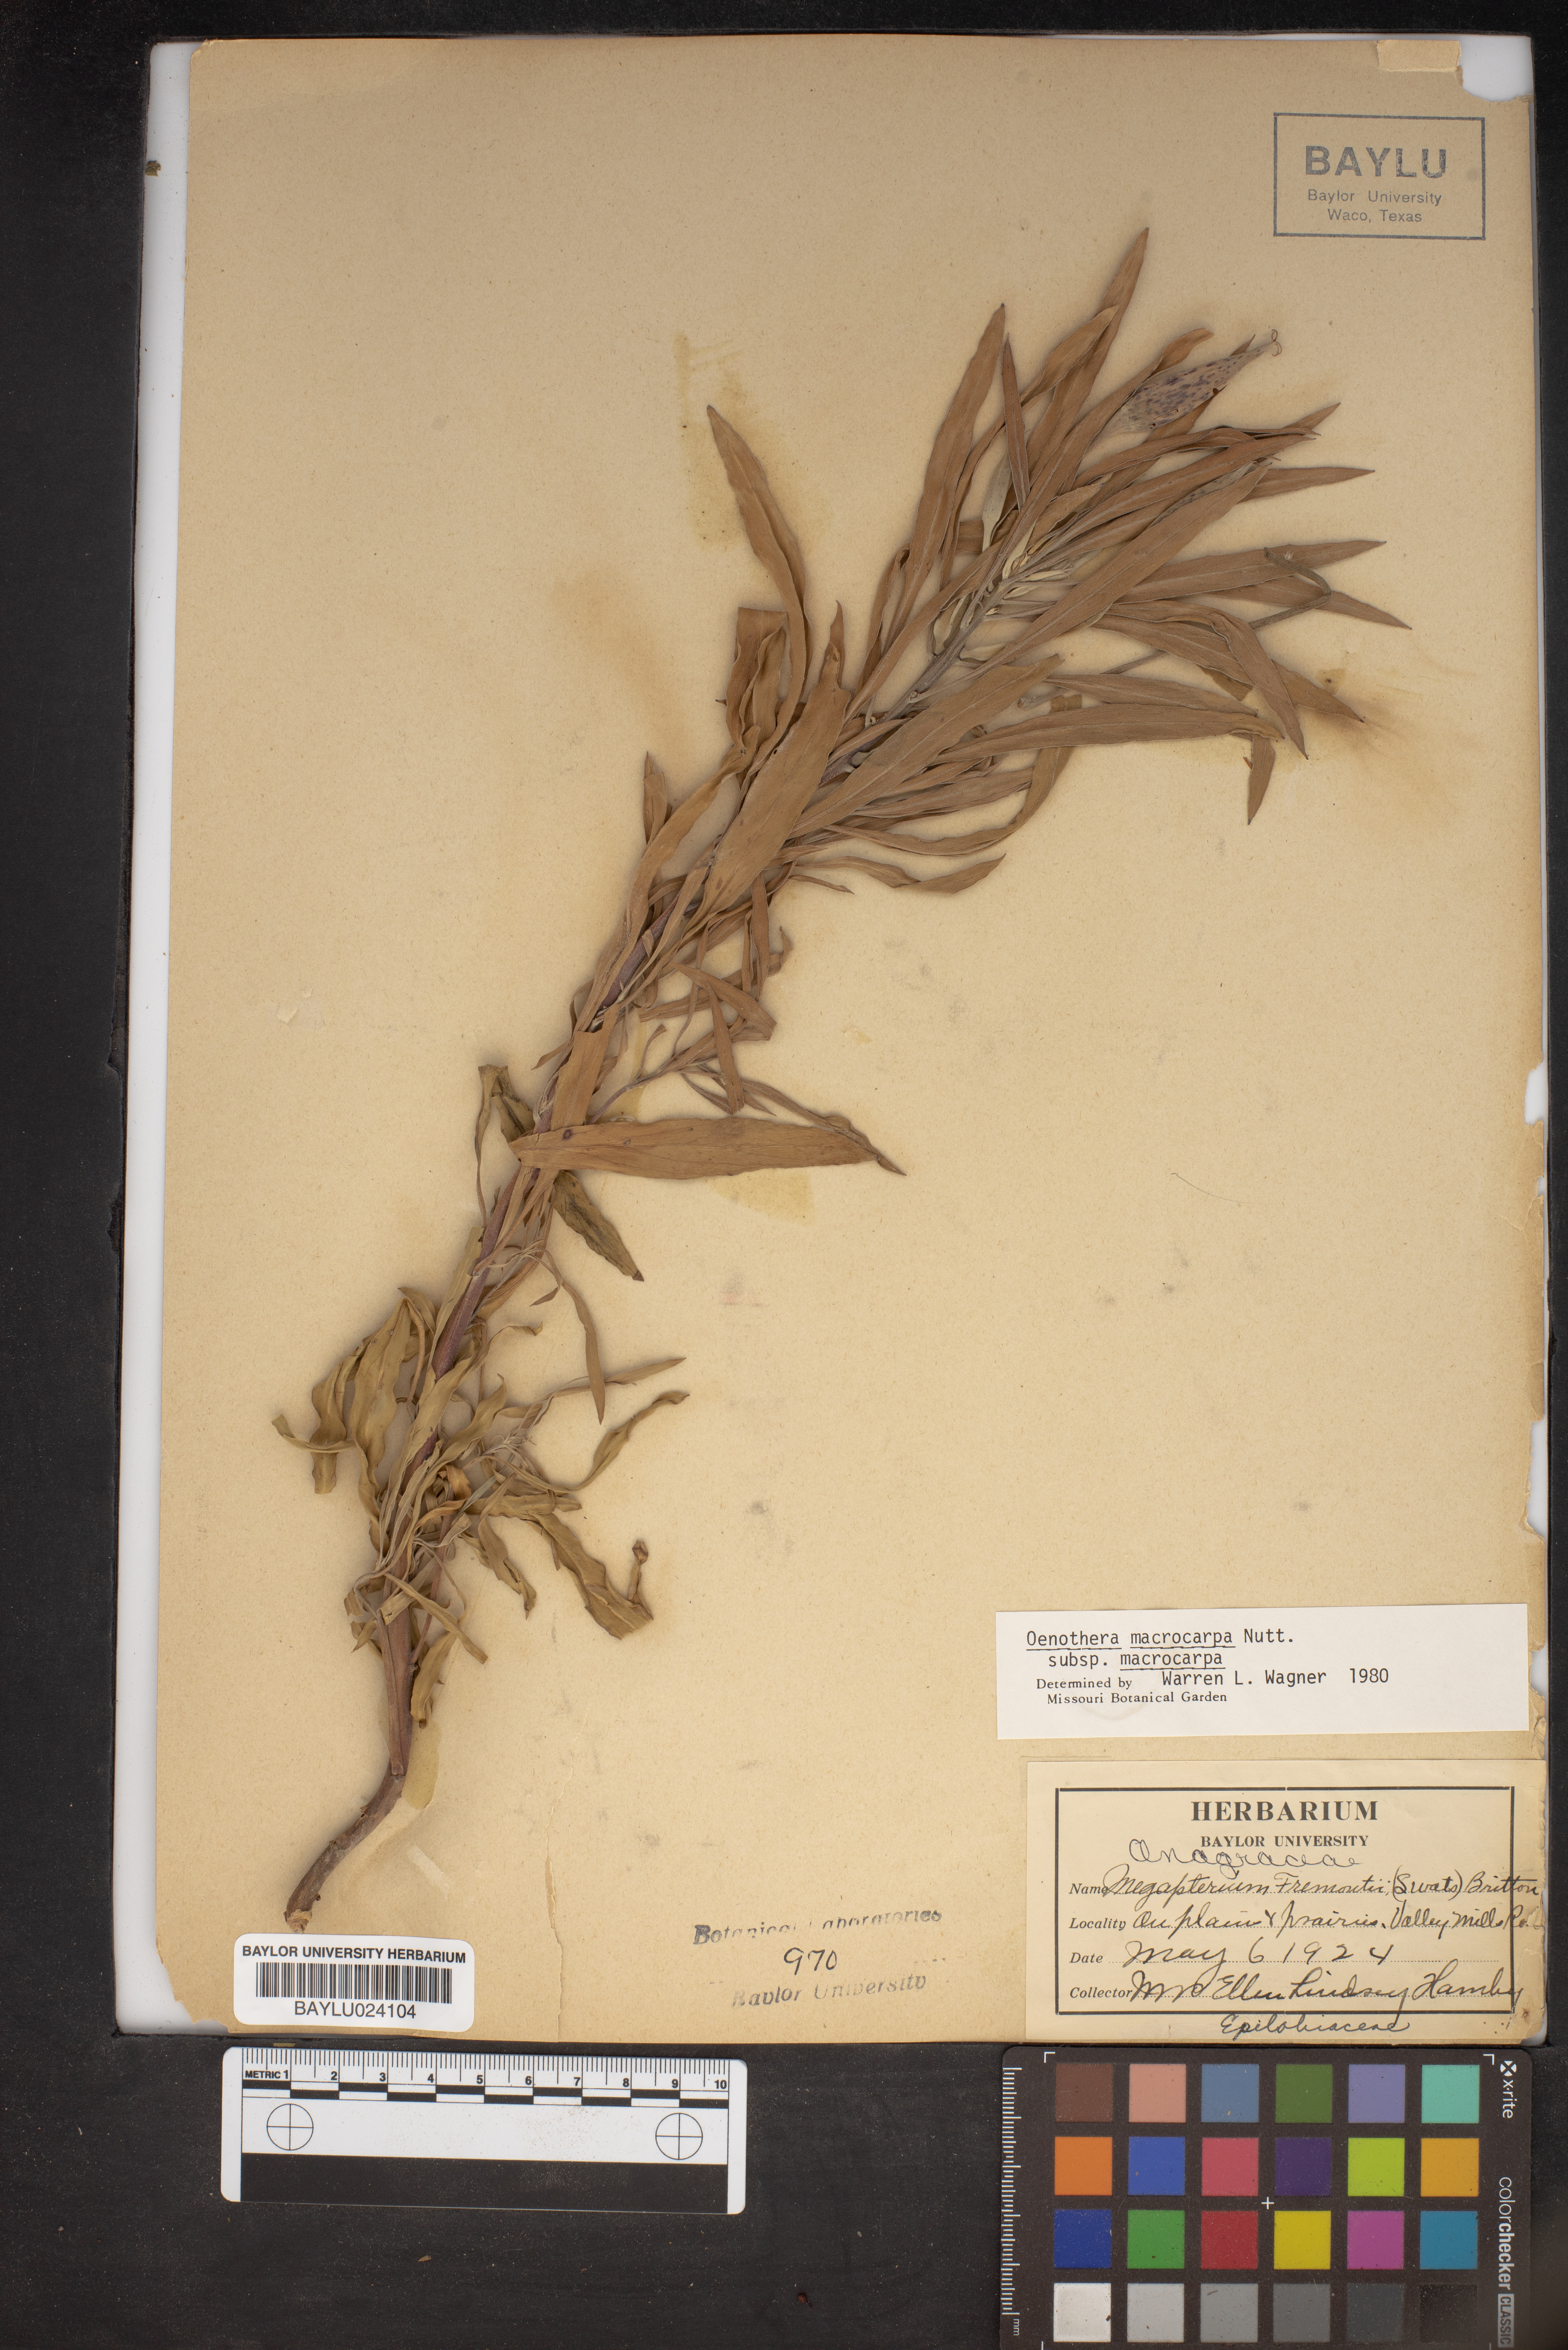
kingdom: Plantae
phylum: Tracheophyta
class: Magnoliopsida
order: Myrtales
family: Onagraceae
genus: Oenothera
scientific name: Oenothera macrocarpa
